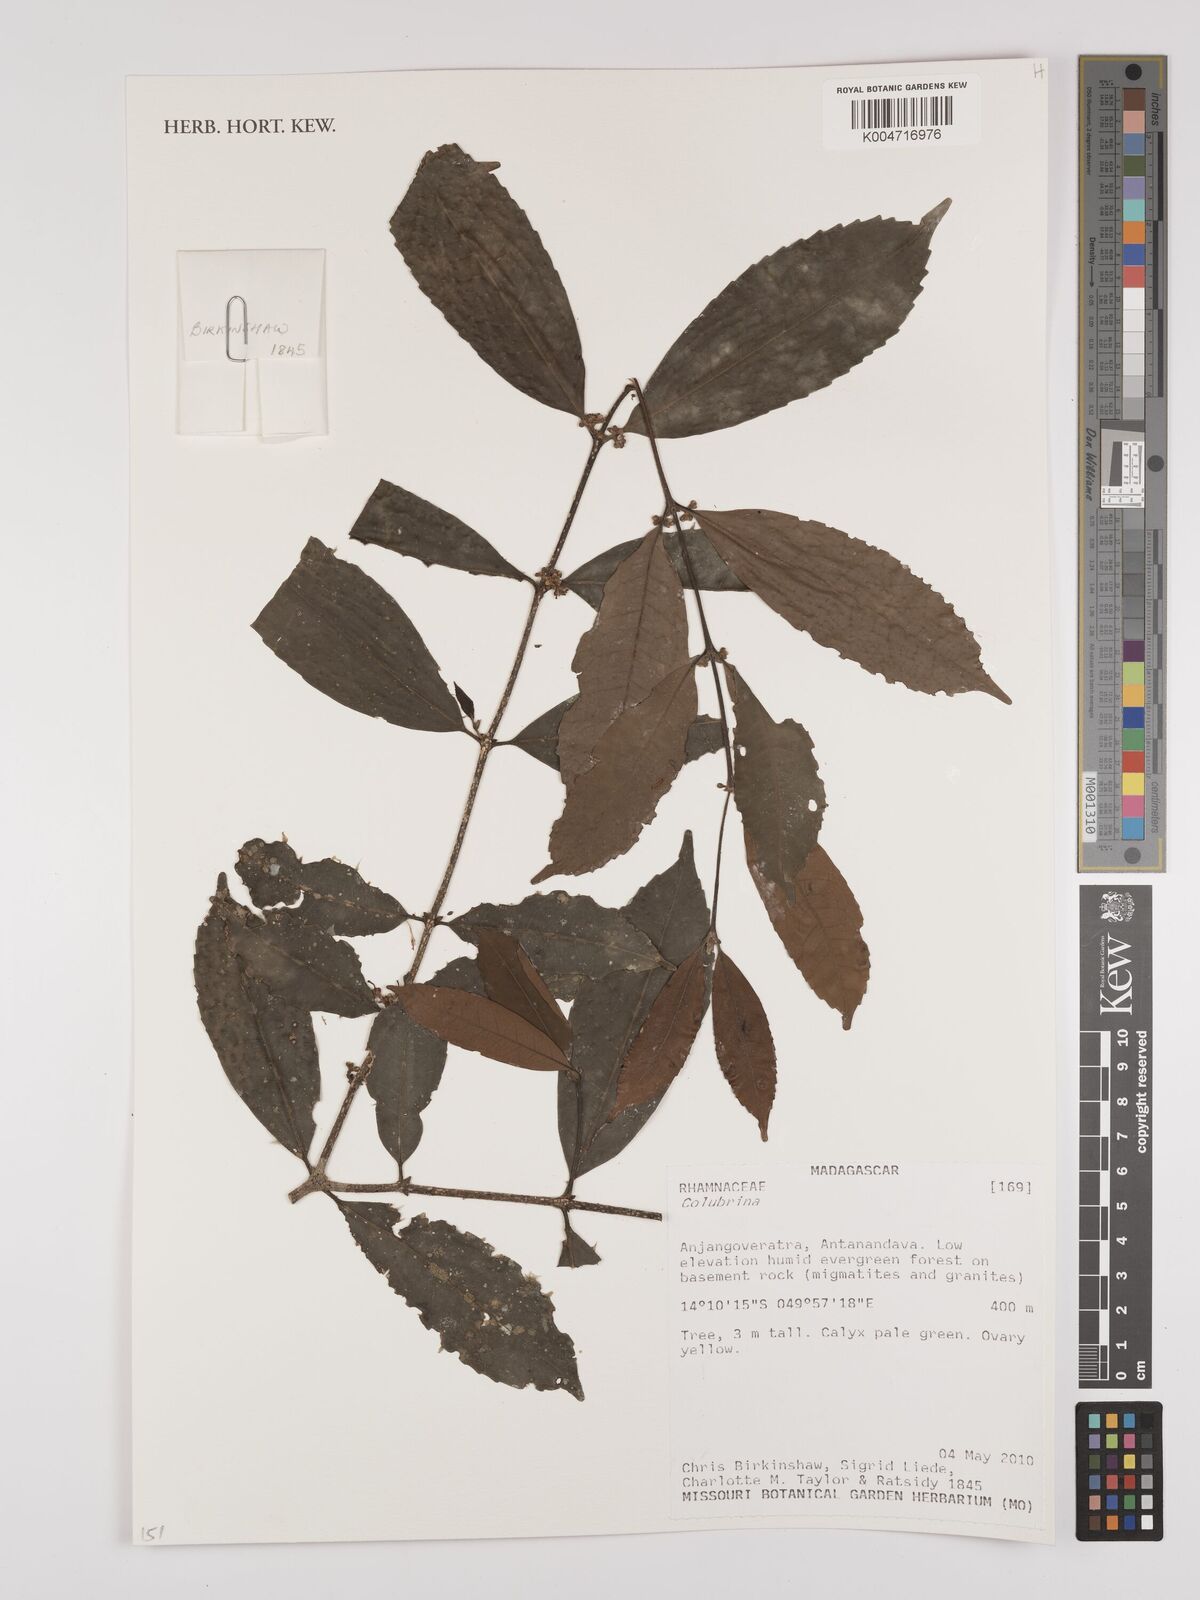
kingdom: Plantae
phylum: Tracheophyta
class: Magnoliopsida
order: Rosales
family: Rhamnaceae
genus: Colubrina
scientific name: Colubrina
